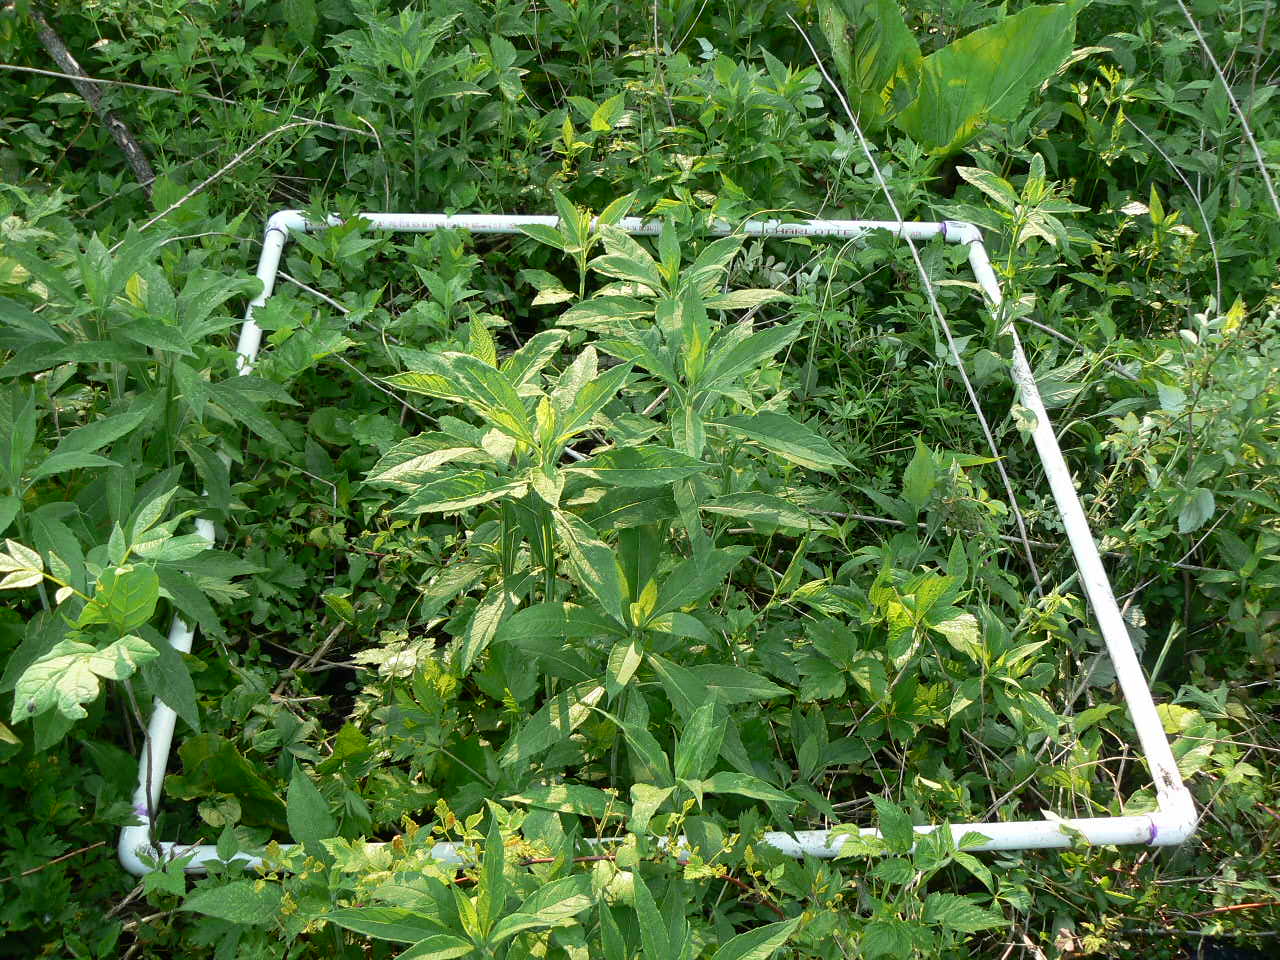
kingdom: Plantae
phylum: Tracheophyta
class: Magnoliopsida
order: Lamiales
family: Lamiaceae
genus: Lycopus
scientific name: Lycopus uniflorus
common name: Northern bugleweed
